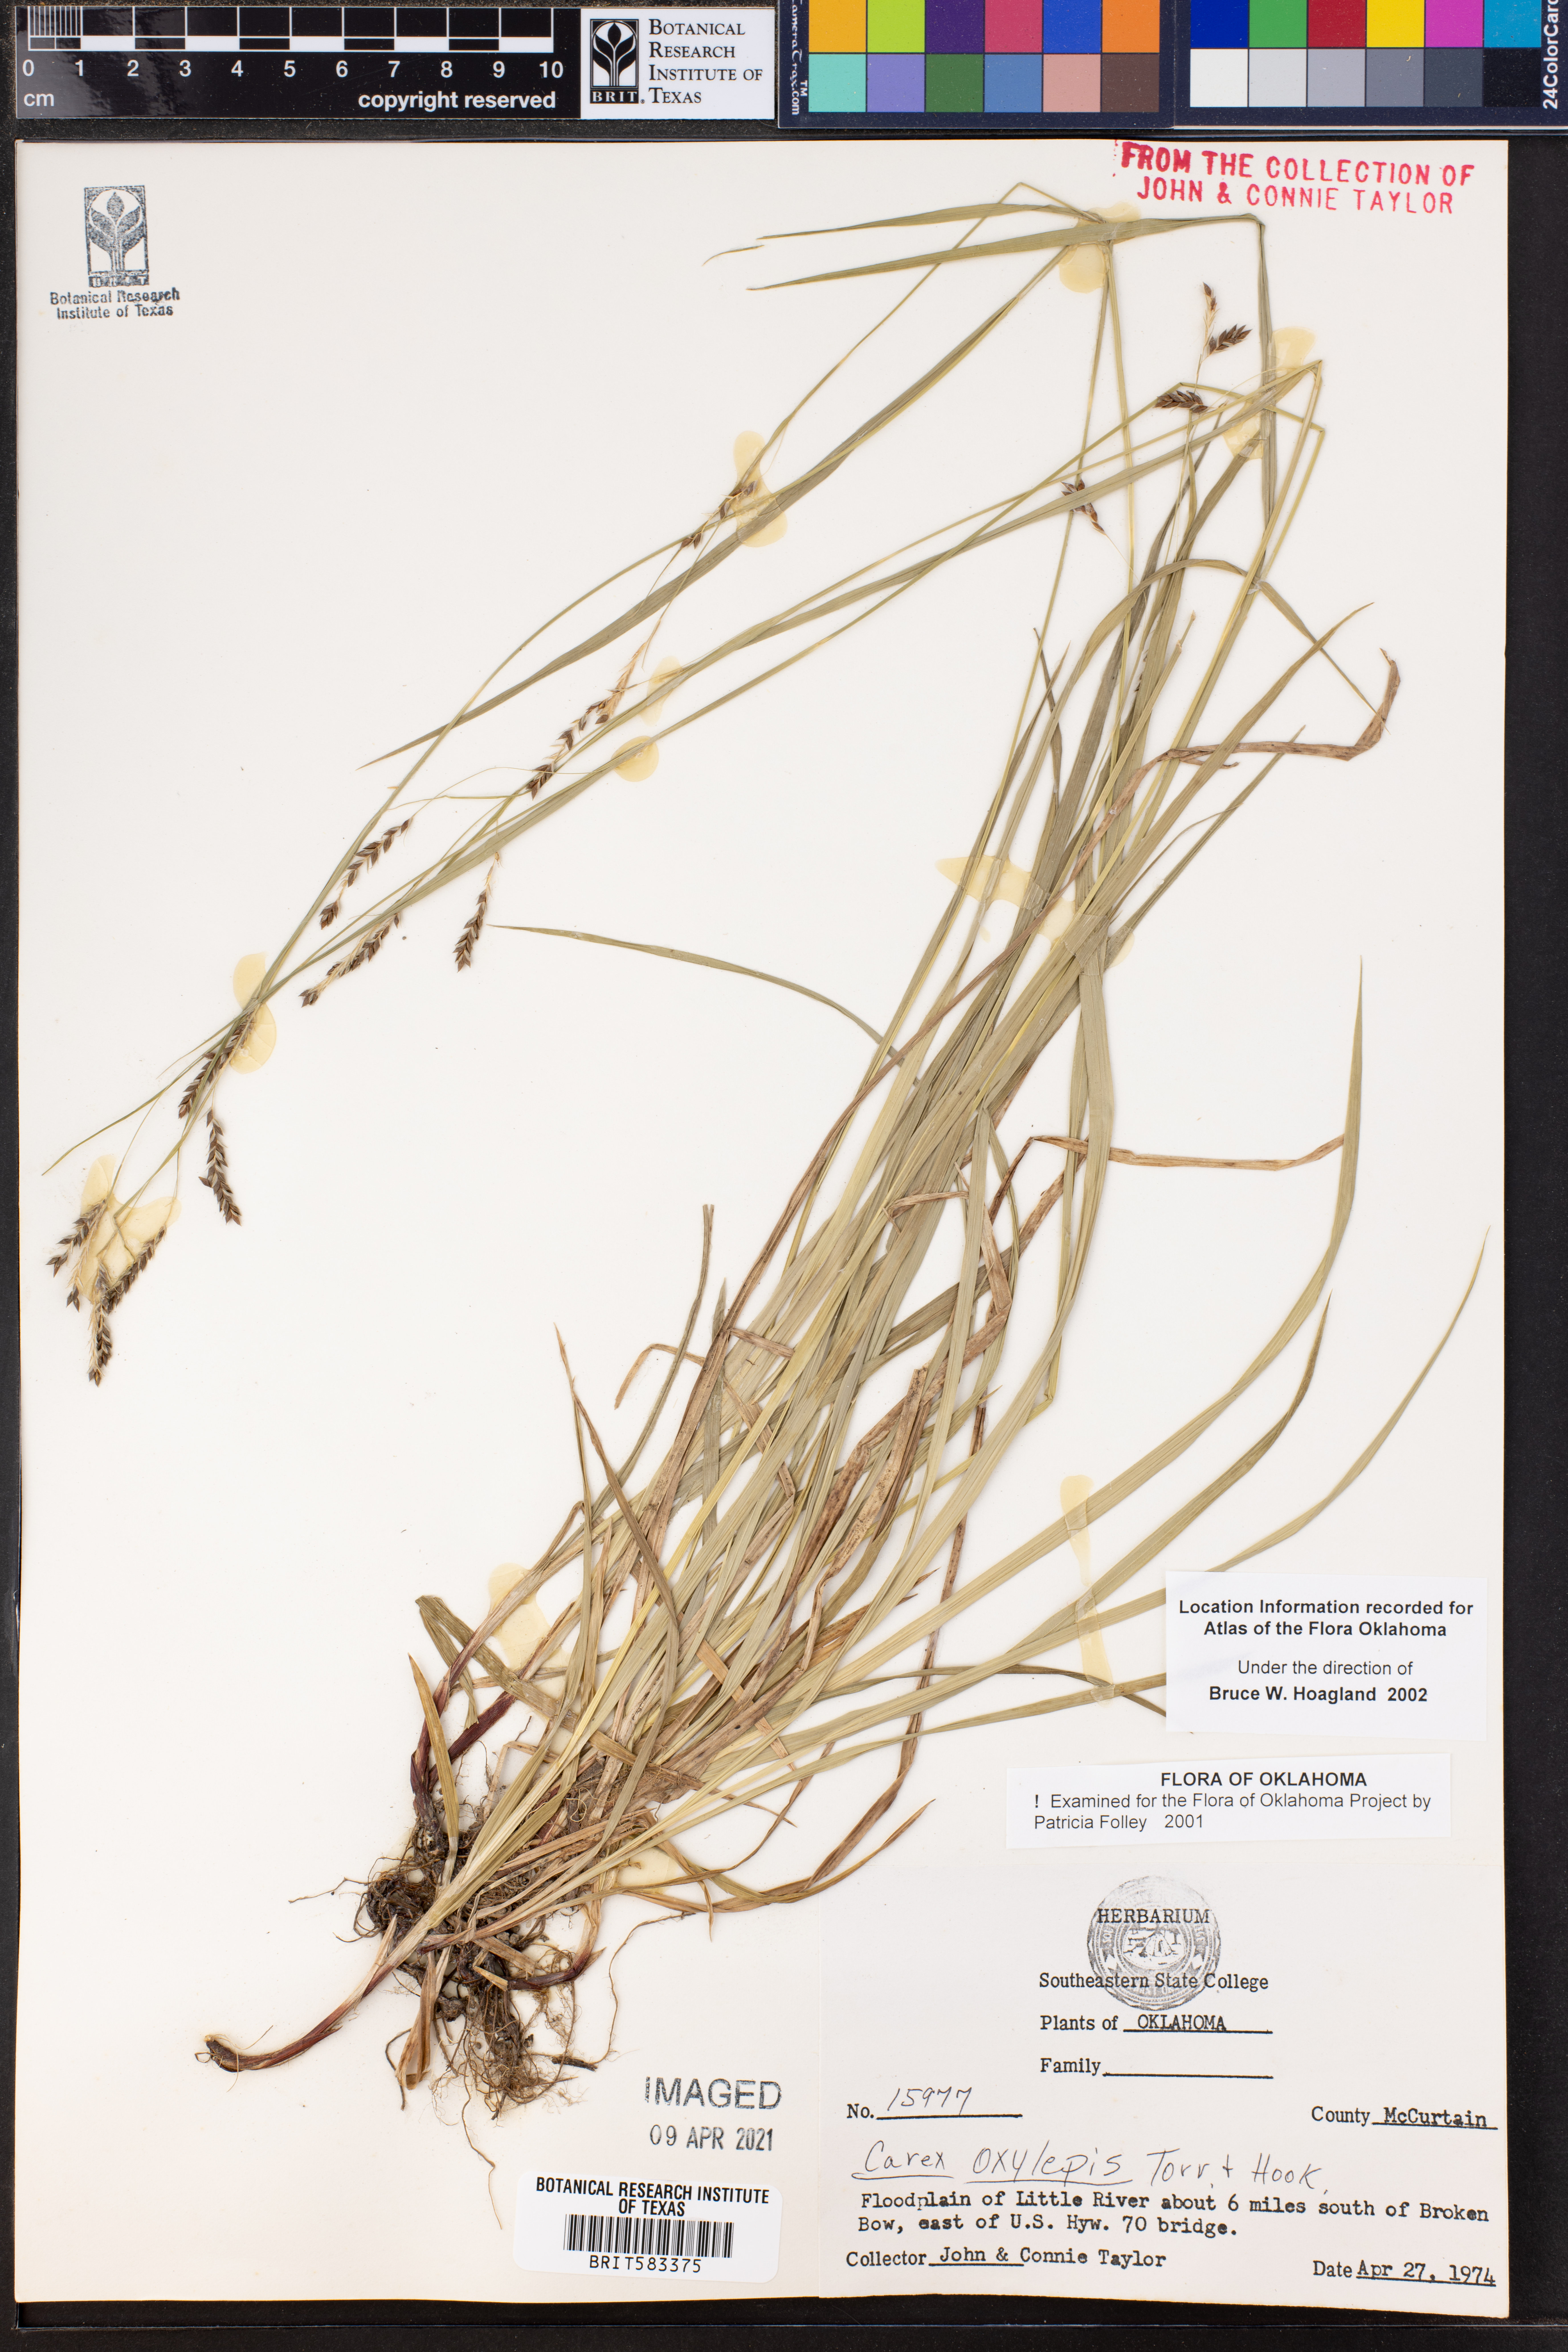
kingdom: Plantae
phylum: Tracheophyta
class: Liliopsida
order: Poales
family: Cyperaceae
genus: Carex
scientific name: Carex oxylepis
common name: Sharpscale sedge
